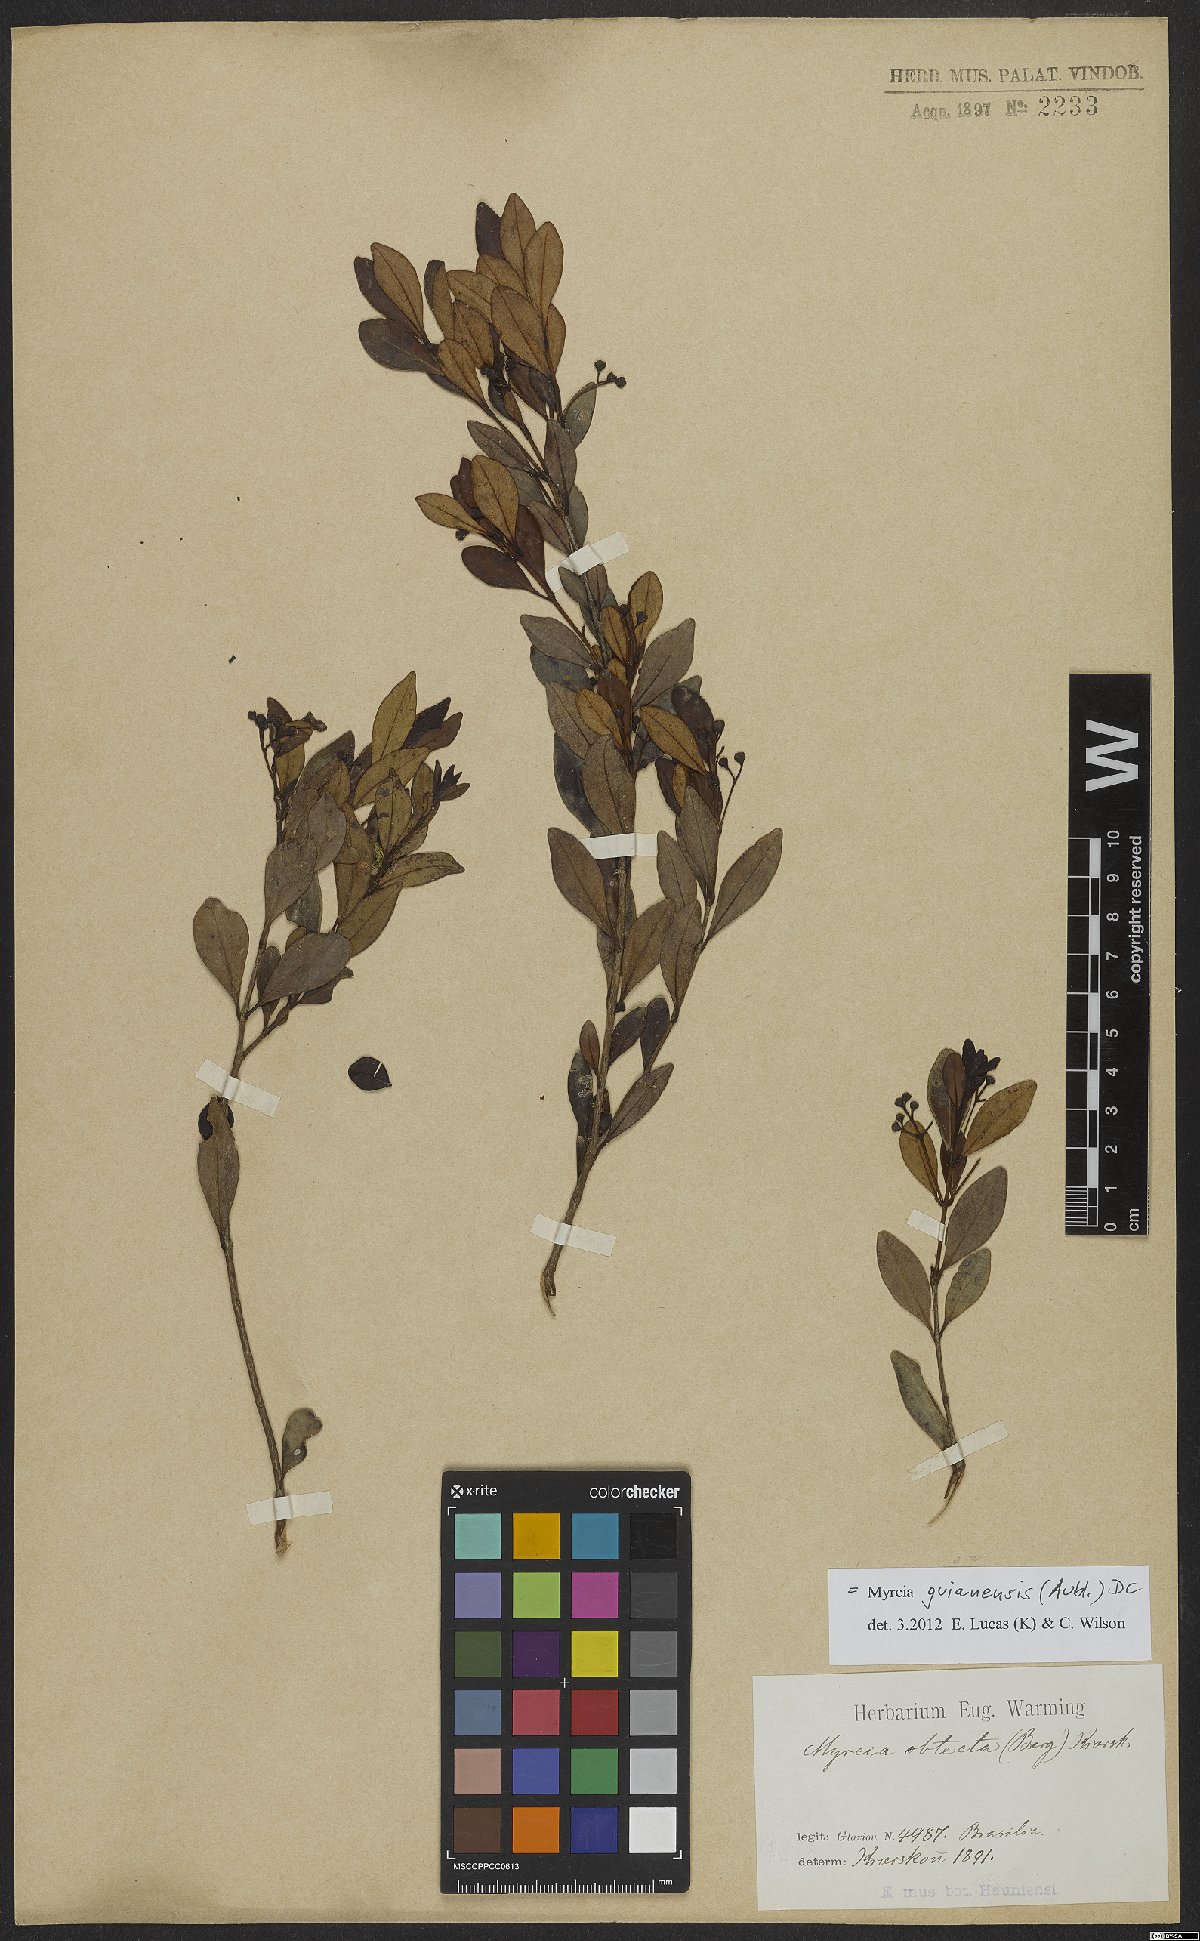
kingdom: Plantae
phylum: Tracheophyta
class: Magnoliopsida
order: Myrtales
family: Myrtaceae
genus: Myrcia
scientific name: Myrcia guianensis
